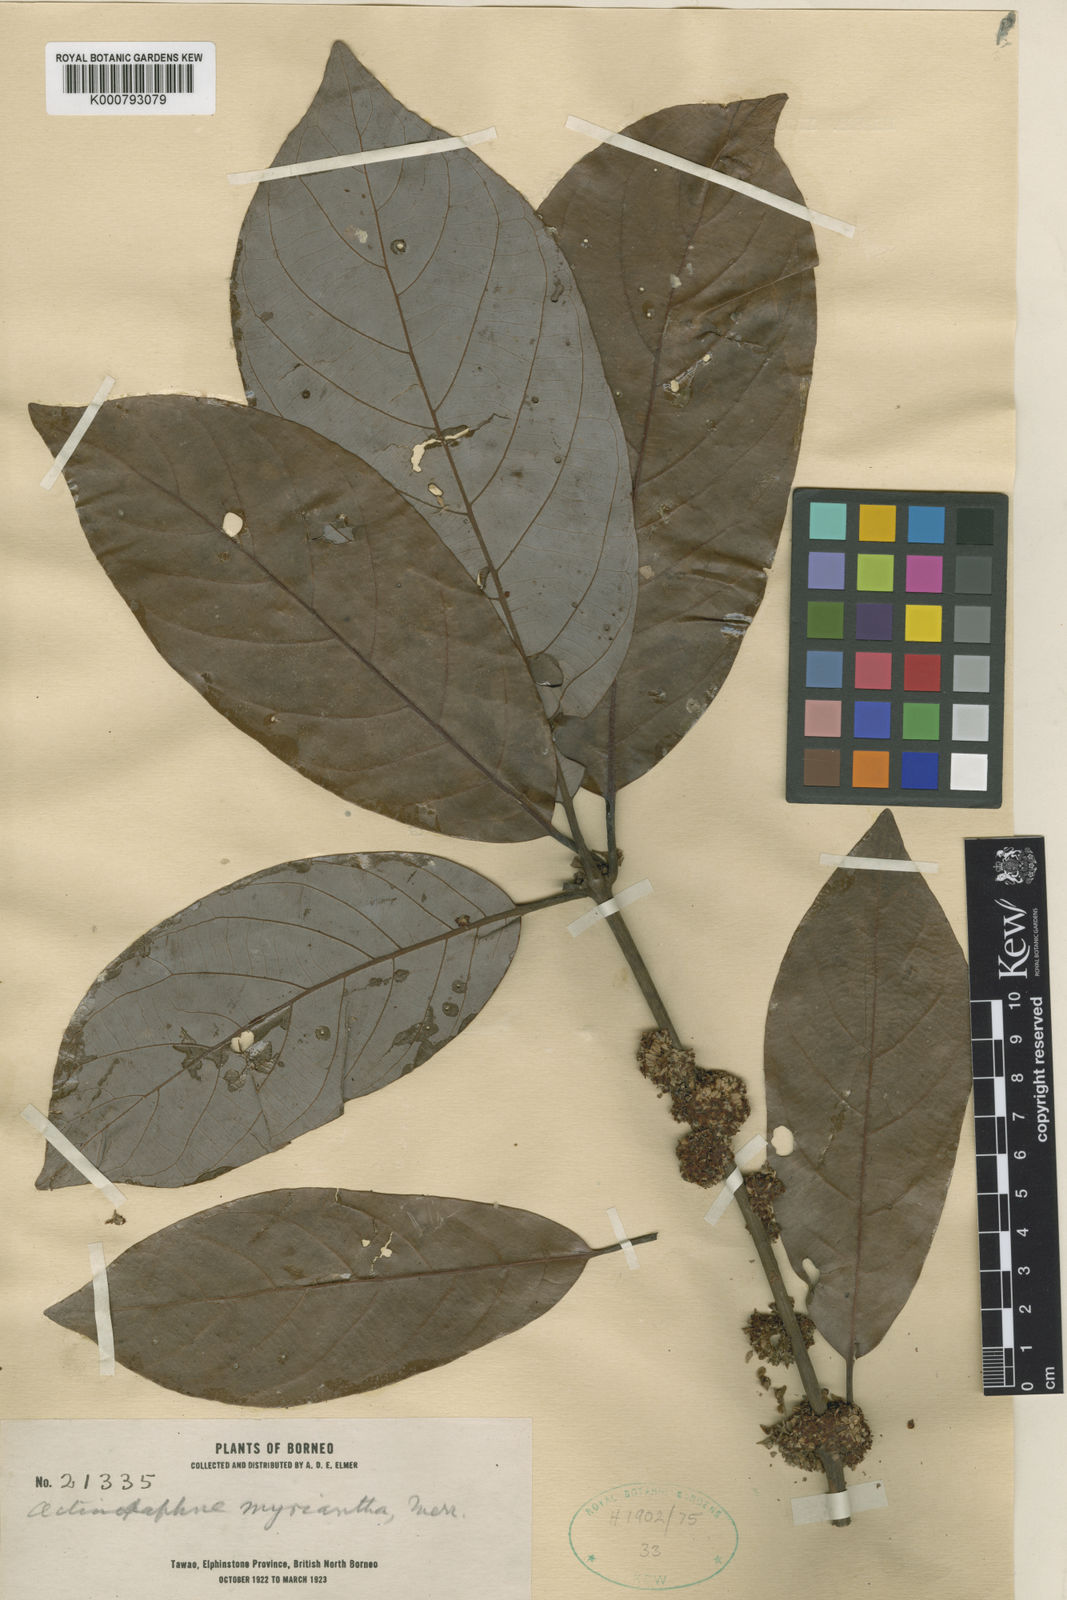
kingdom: Plantae
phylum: Tracheophyta
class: Magnoliopsida
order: Laurales
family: Lauraceae
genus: Actinodaphne
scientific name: Actinodaphne myriantha
